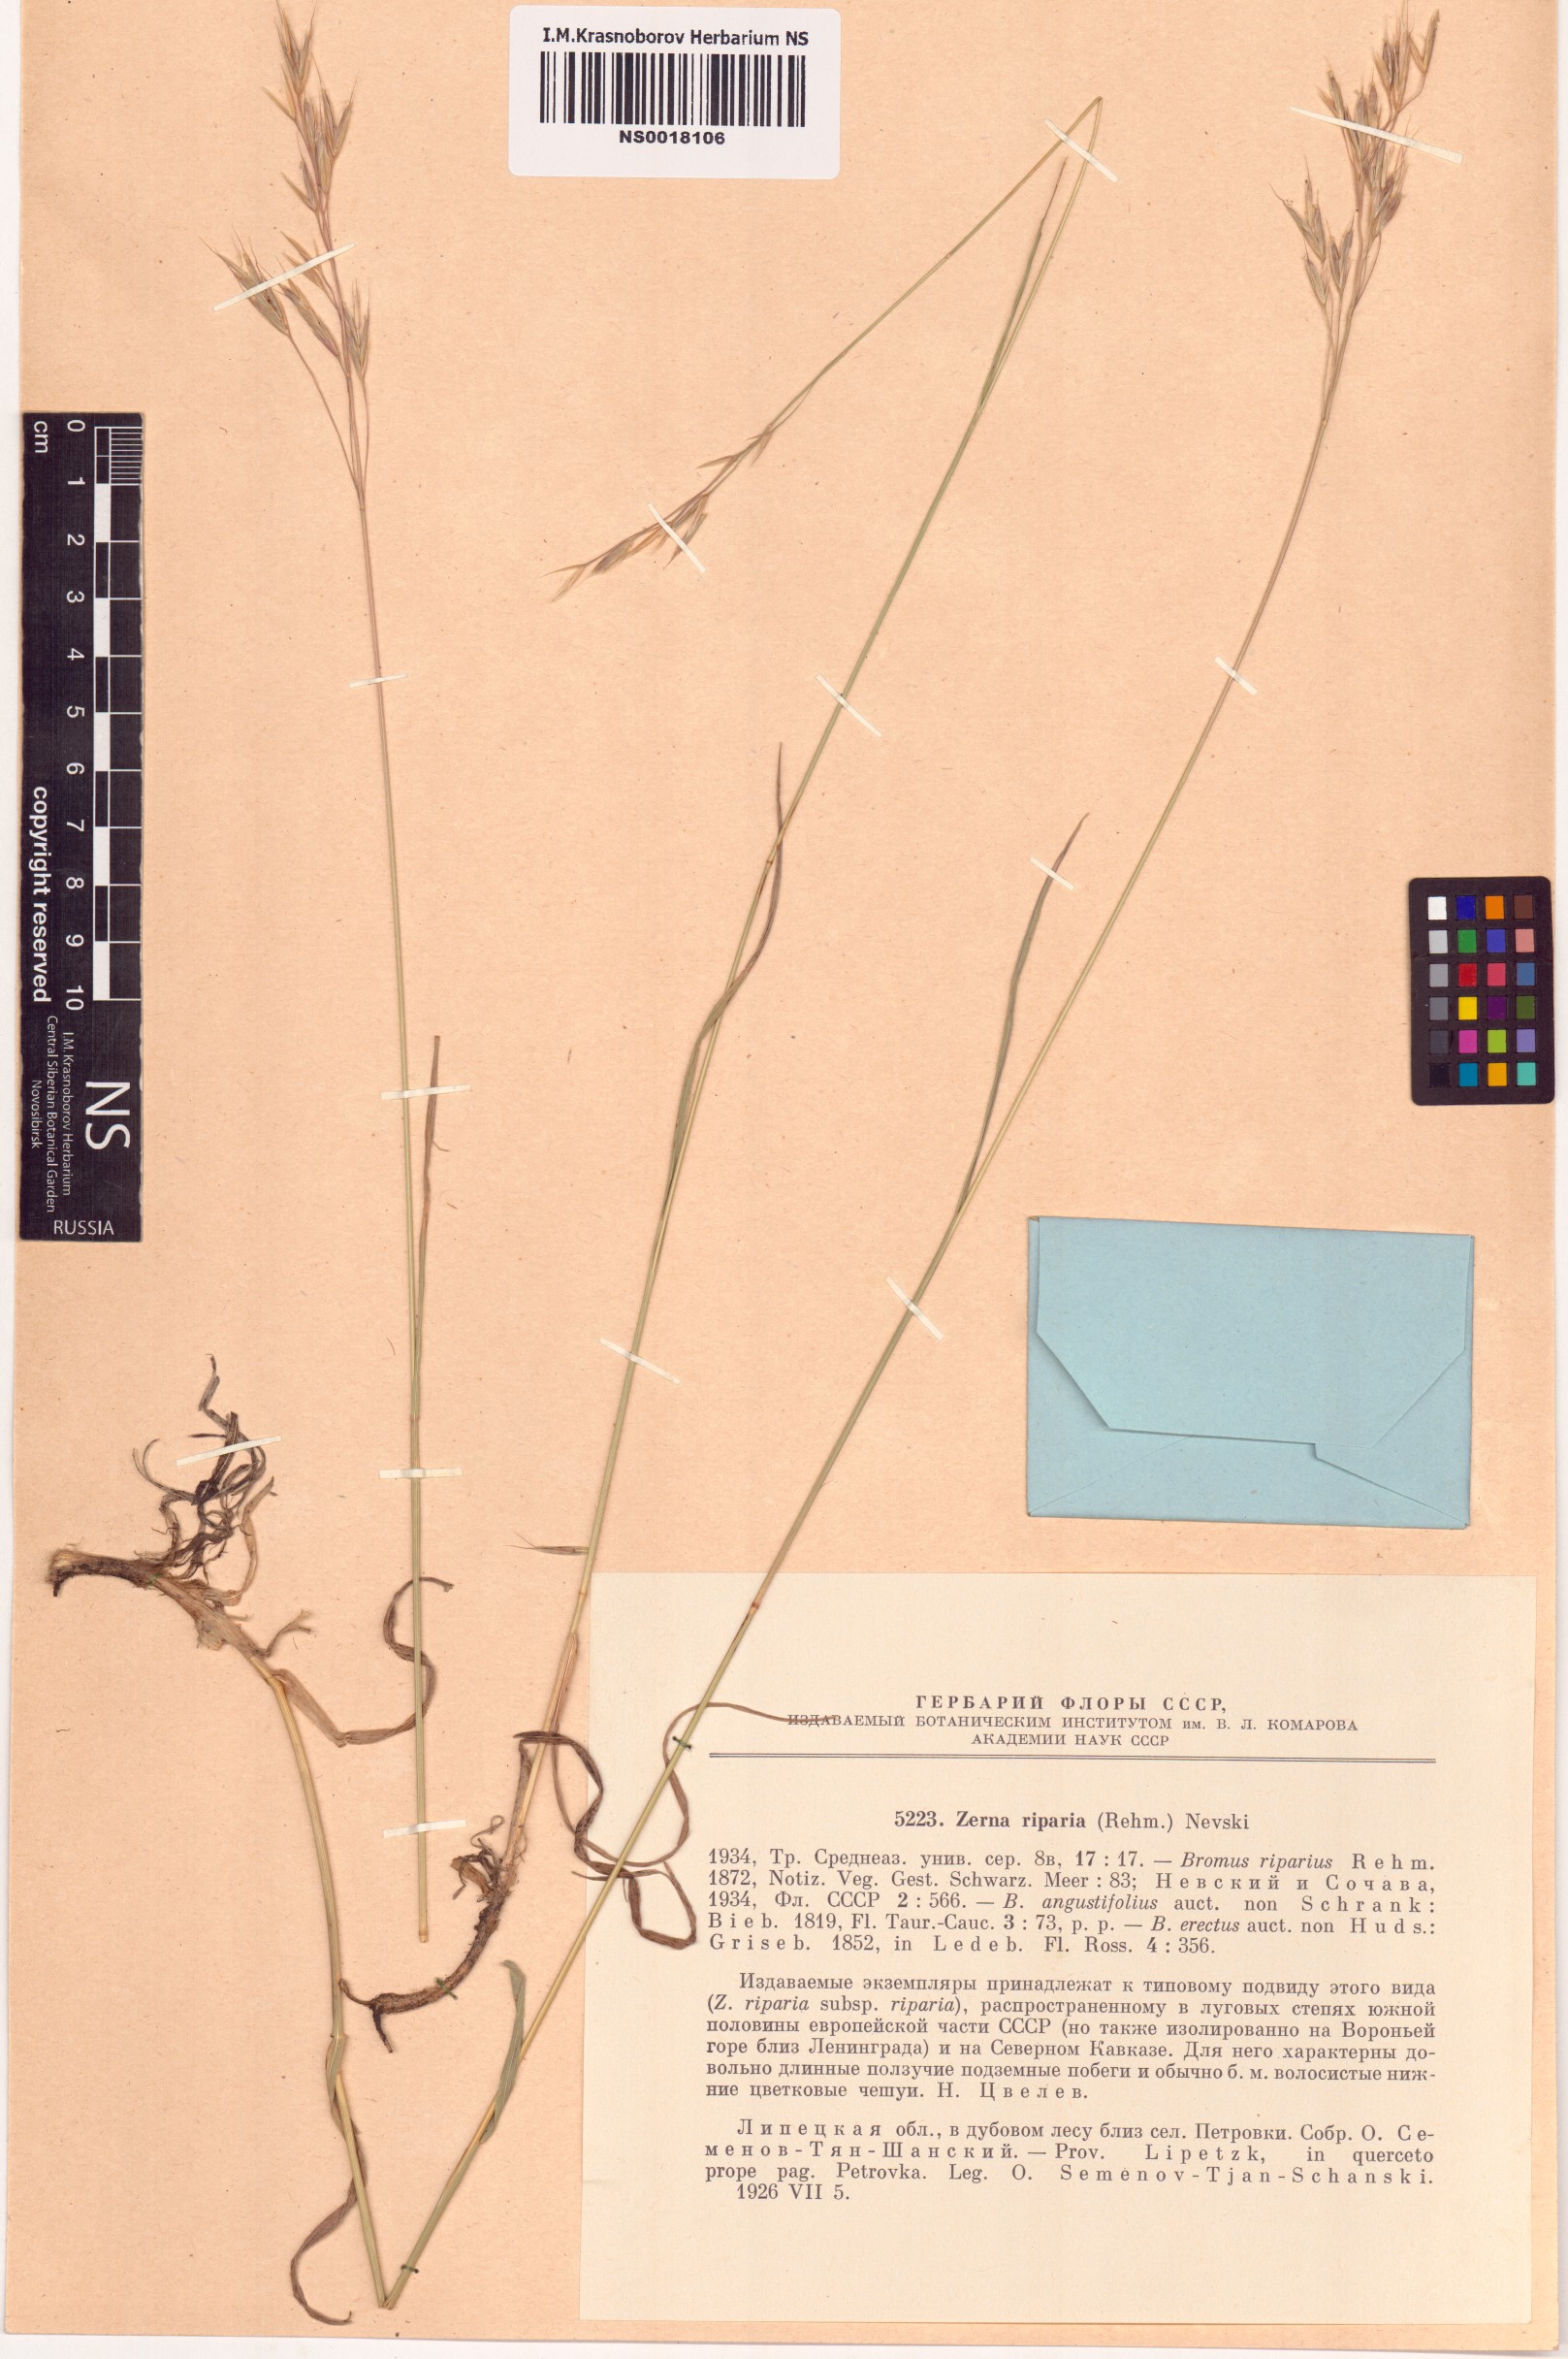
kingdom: Plantae
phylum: Tracheophyta
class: Liliopsida
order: Poales
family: Poaceae
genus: Bromus
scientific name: Bromus riparius
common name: Meadow brome
